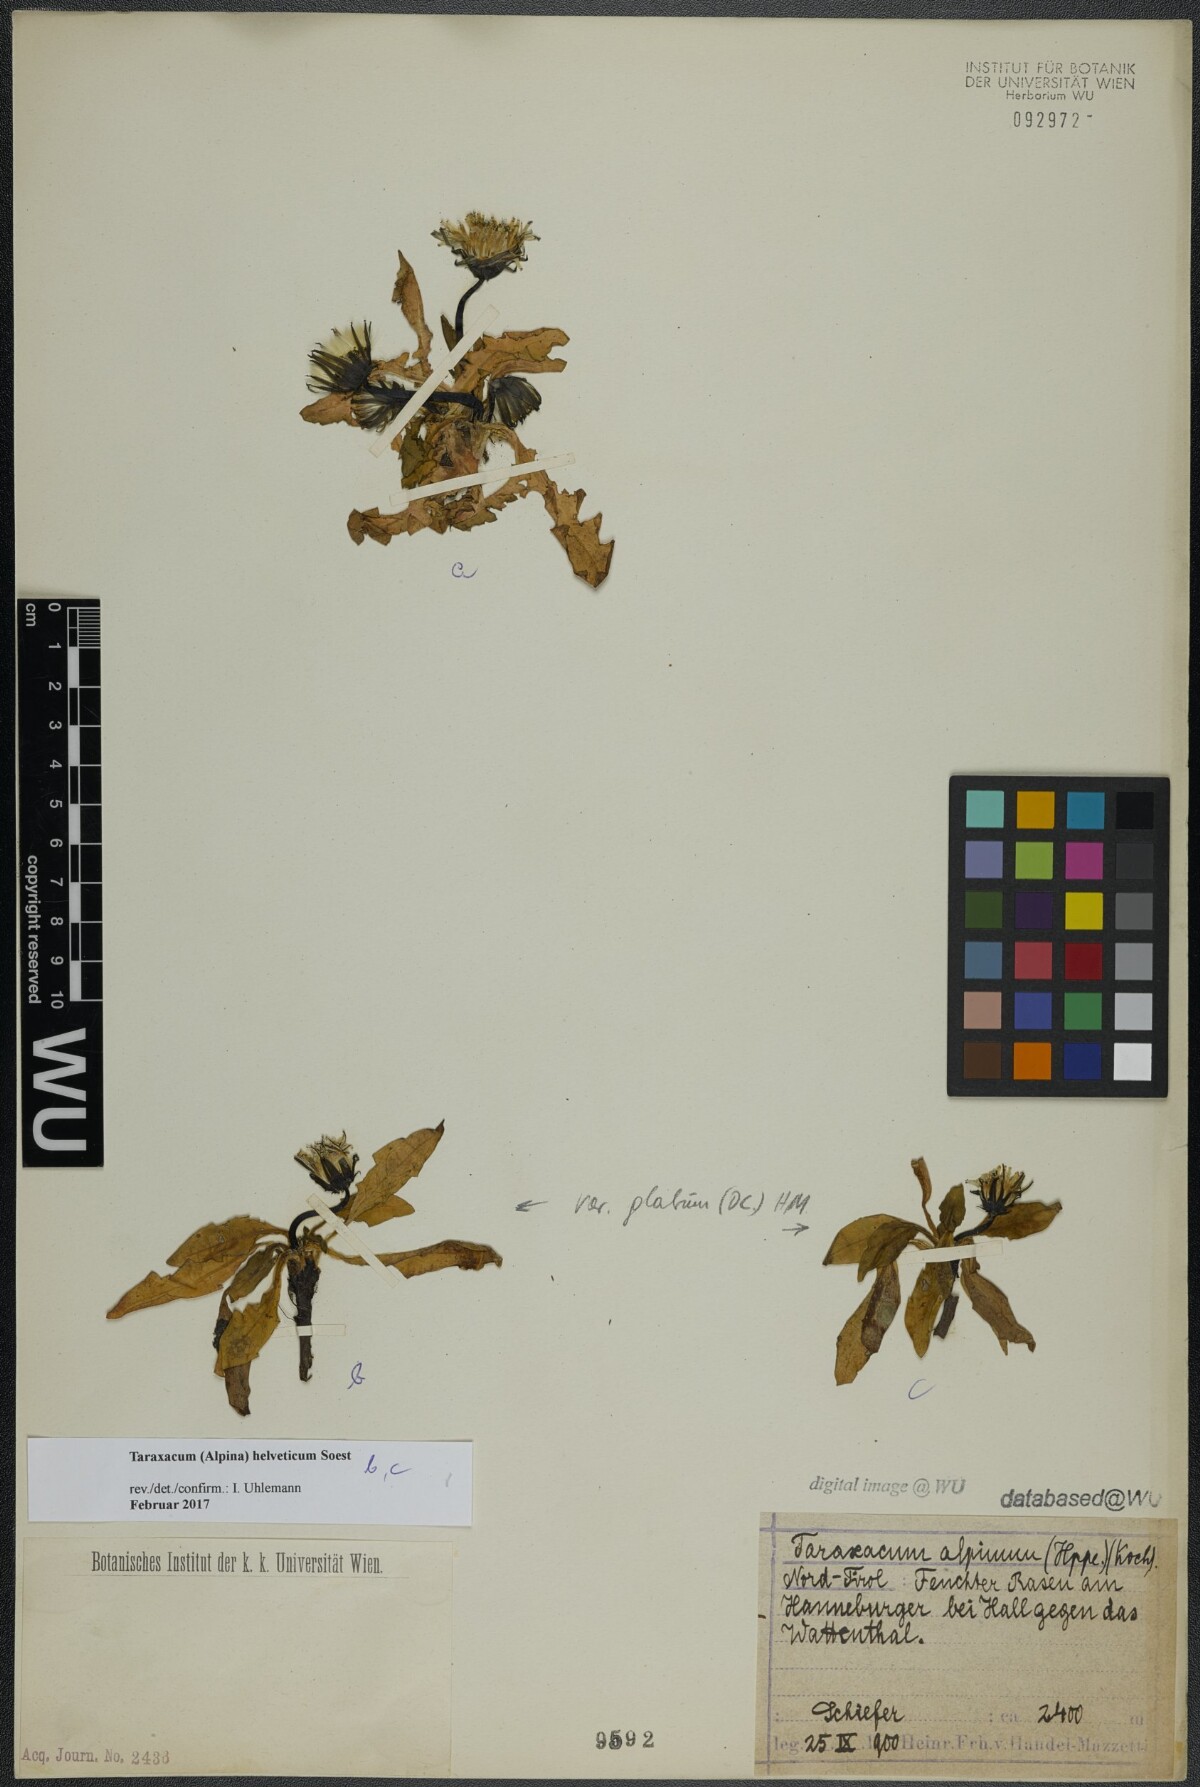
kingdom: Plantae
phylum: Tracheophyta
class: Magnoliopsida
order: Asterales
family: Asteraceae
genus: Taraxacum
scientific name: Taraxacum helveticum
